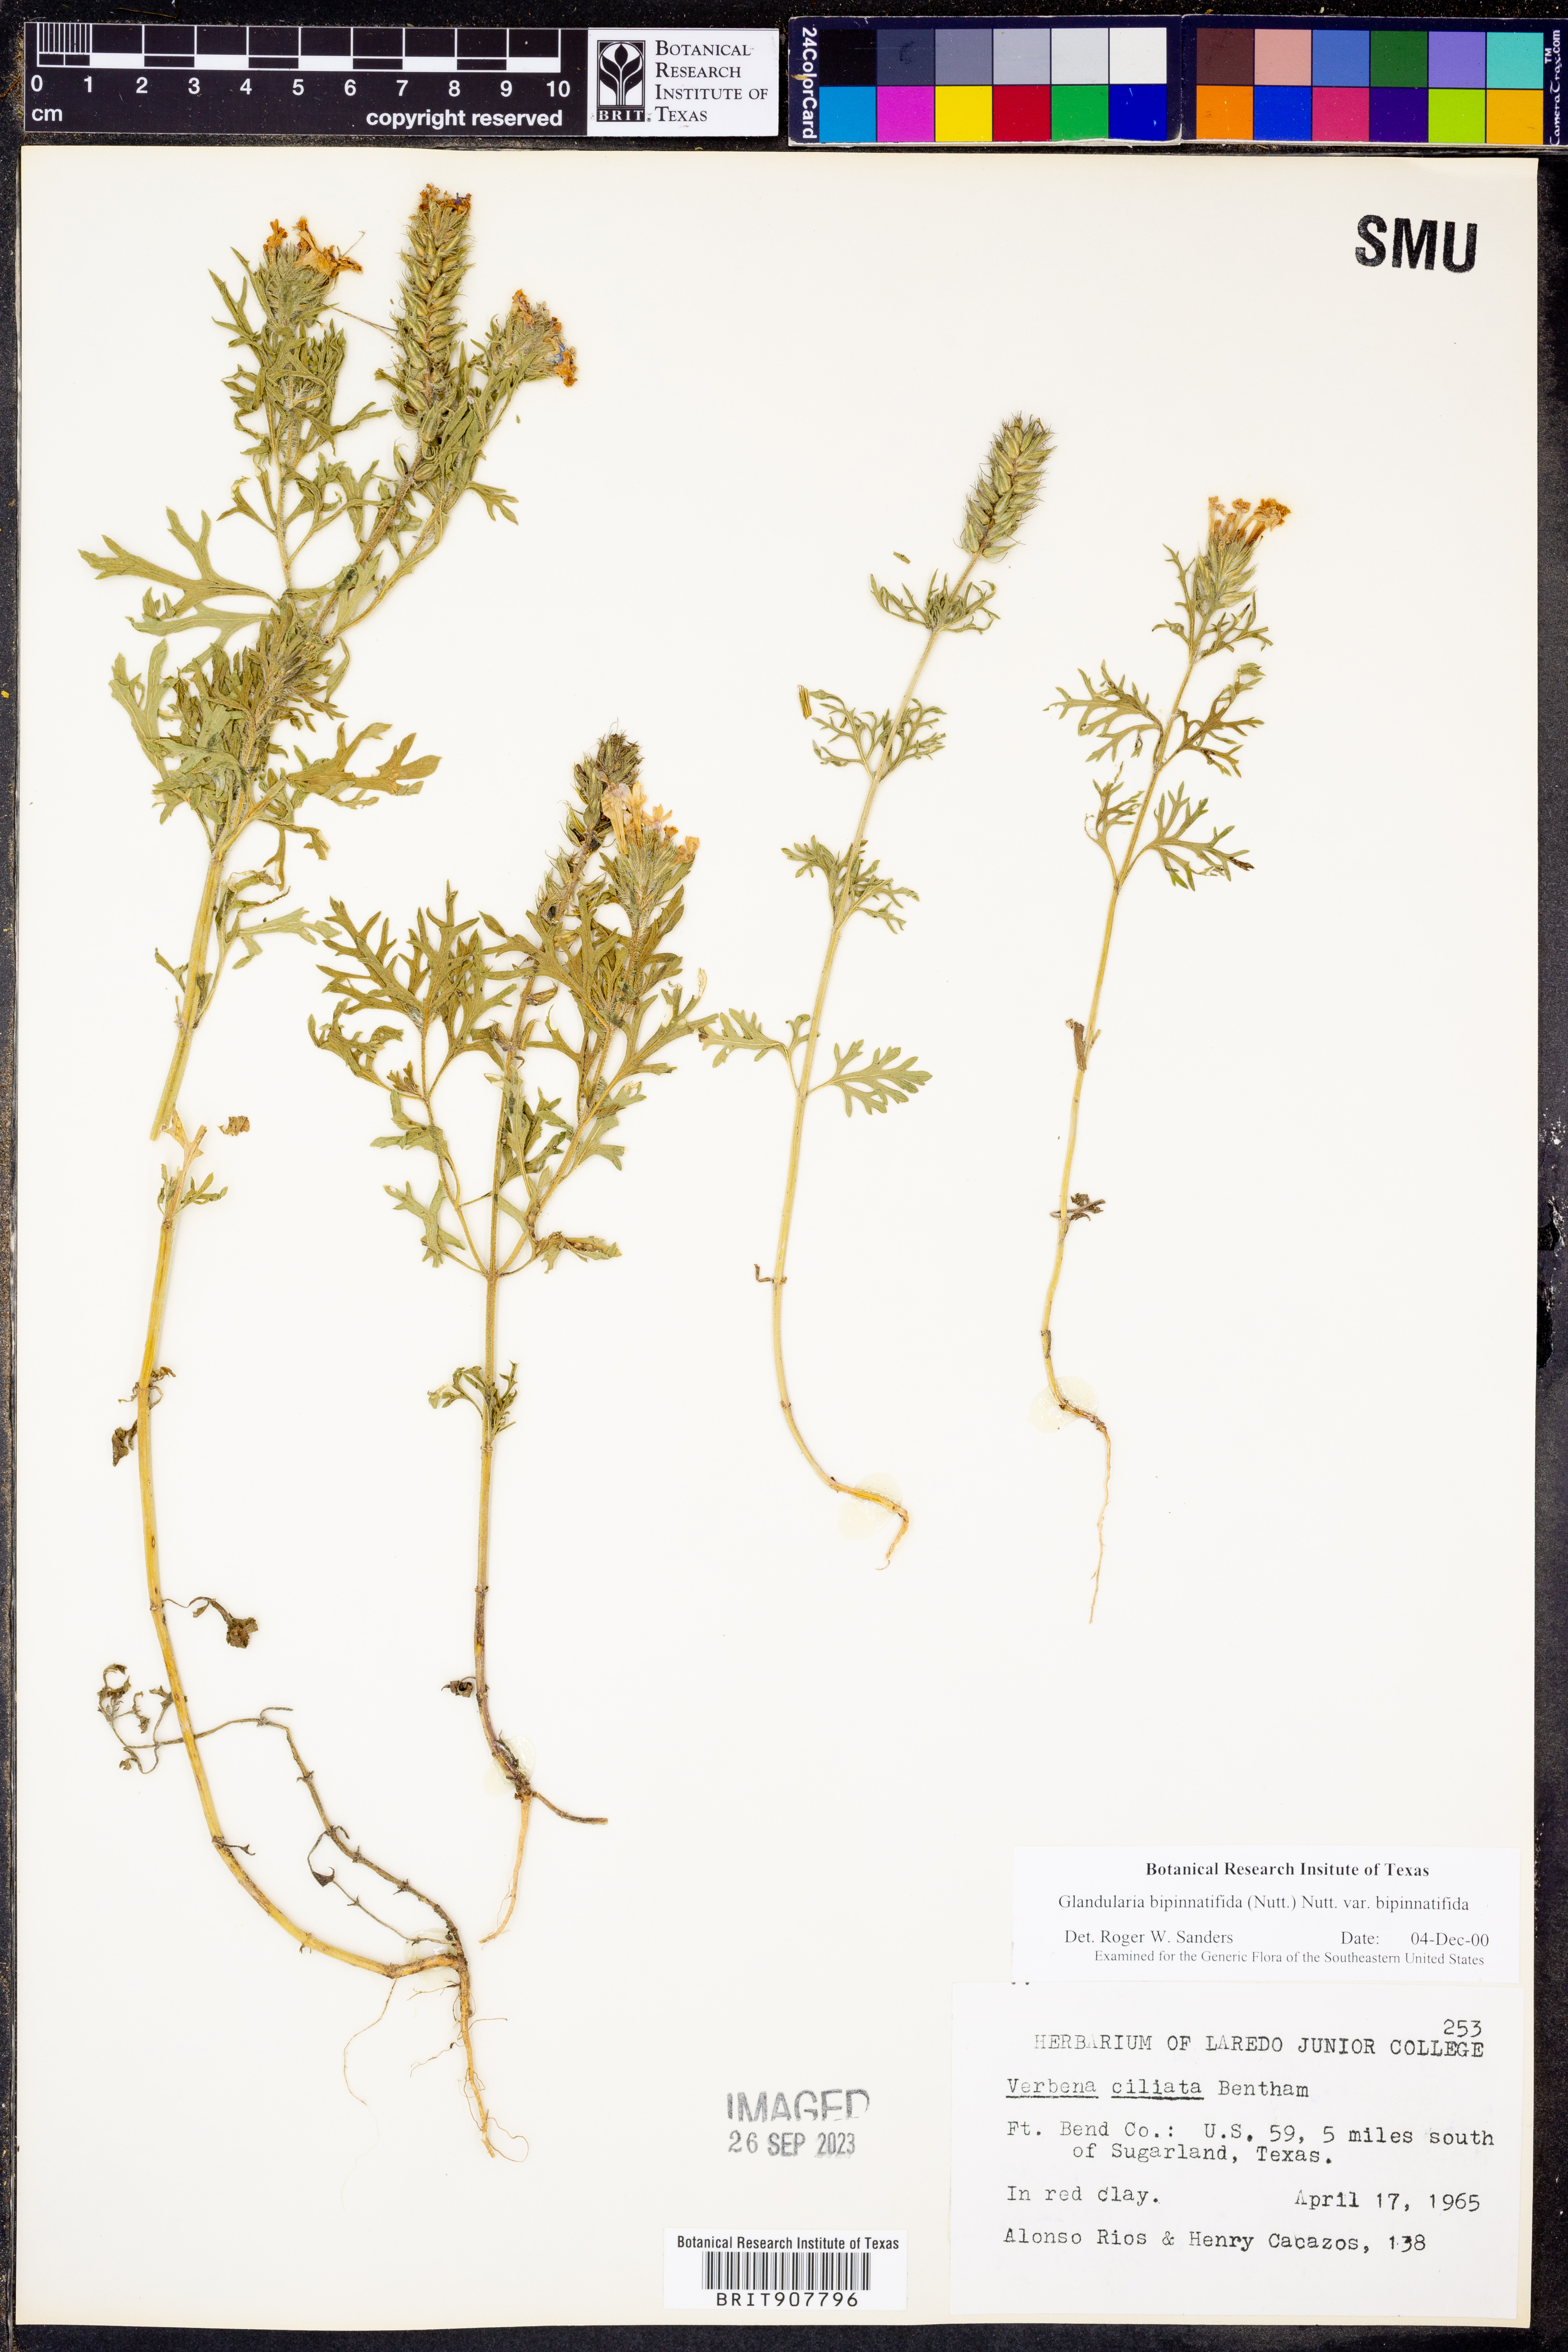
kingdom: Plantae
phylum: Tracheophyta
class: Magnoliopsida
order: Lamiales
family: Verbenaceae
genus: Verbena
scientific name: Verbena bipinnatifida
